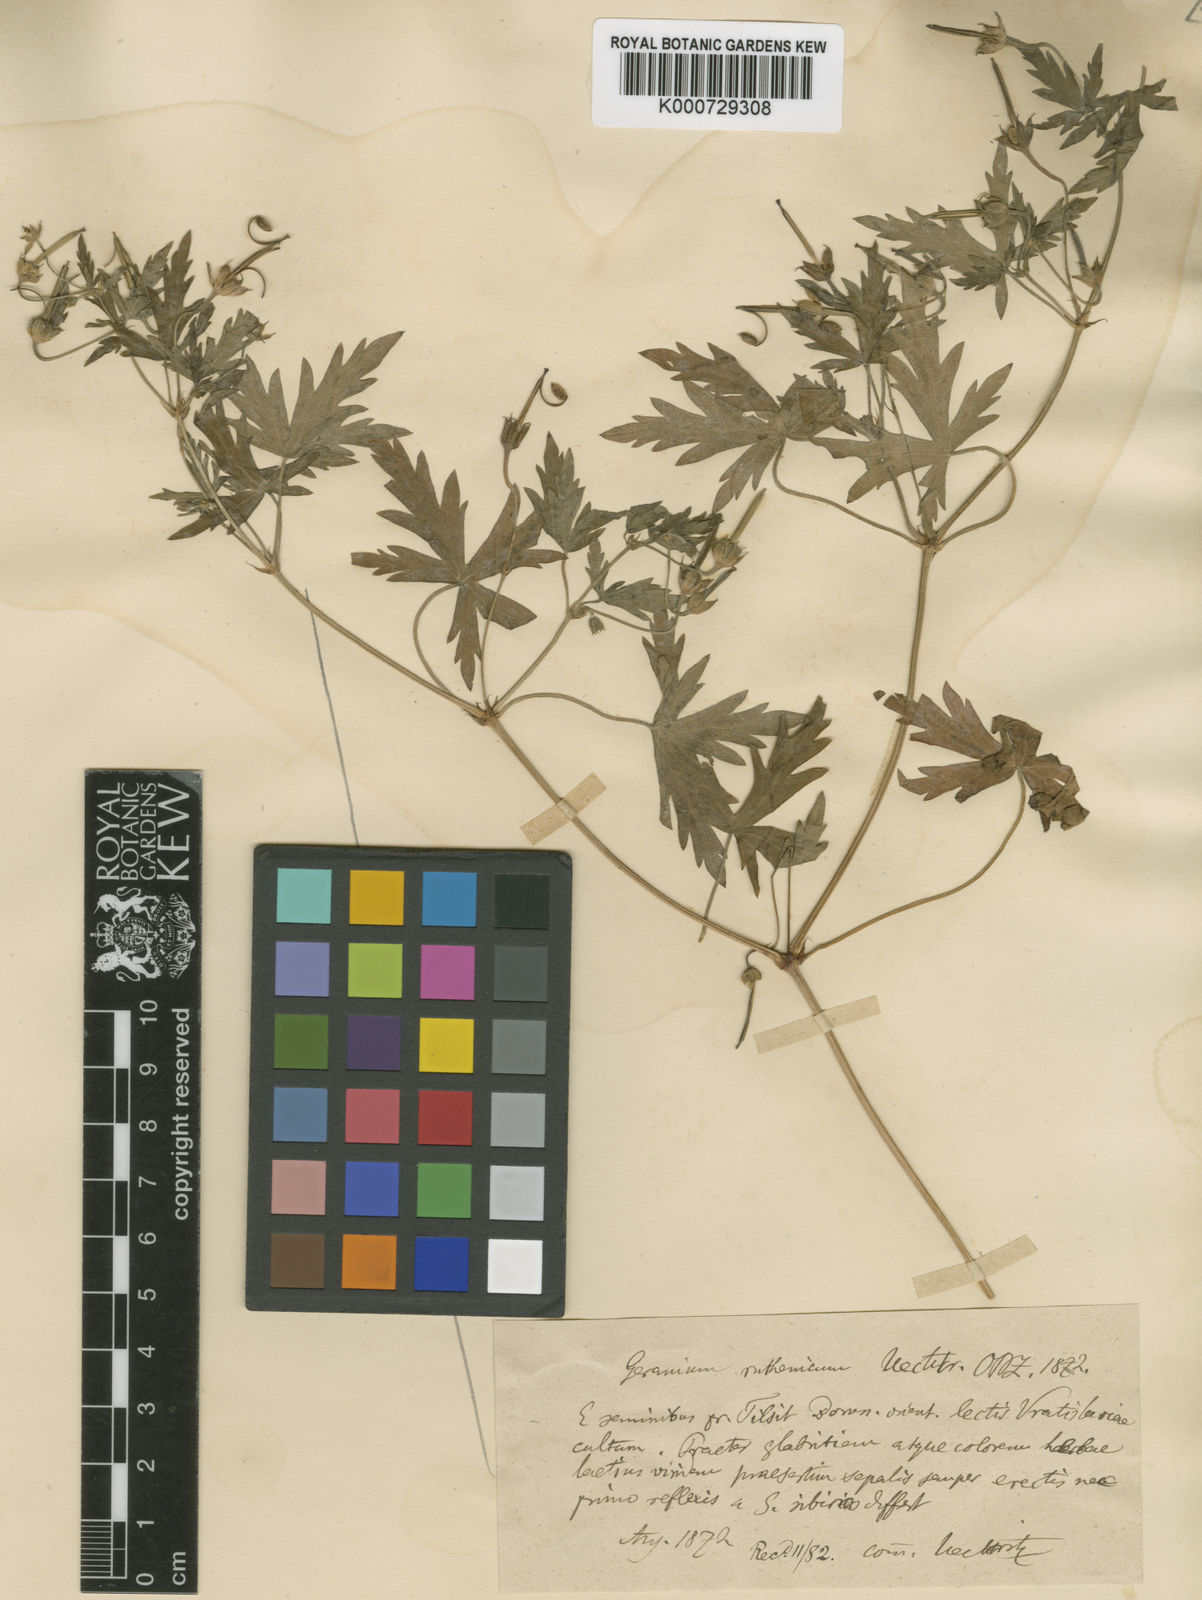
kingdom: Plantae
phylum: Tracheophyta
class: Magnoliopsida
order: Geraniales
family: Geraniaceae
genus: Geranium
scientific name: Geranium sibiricum
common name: Siberian crane's-bill
